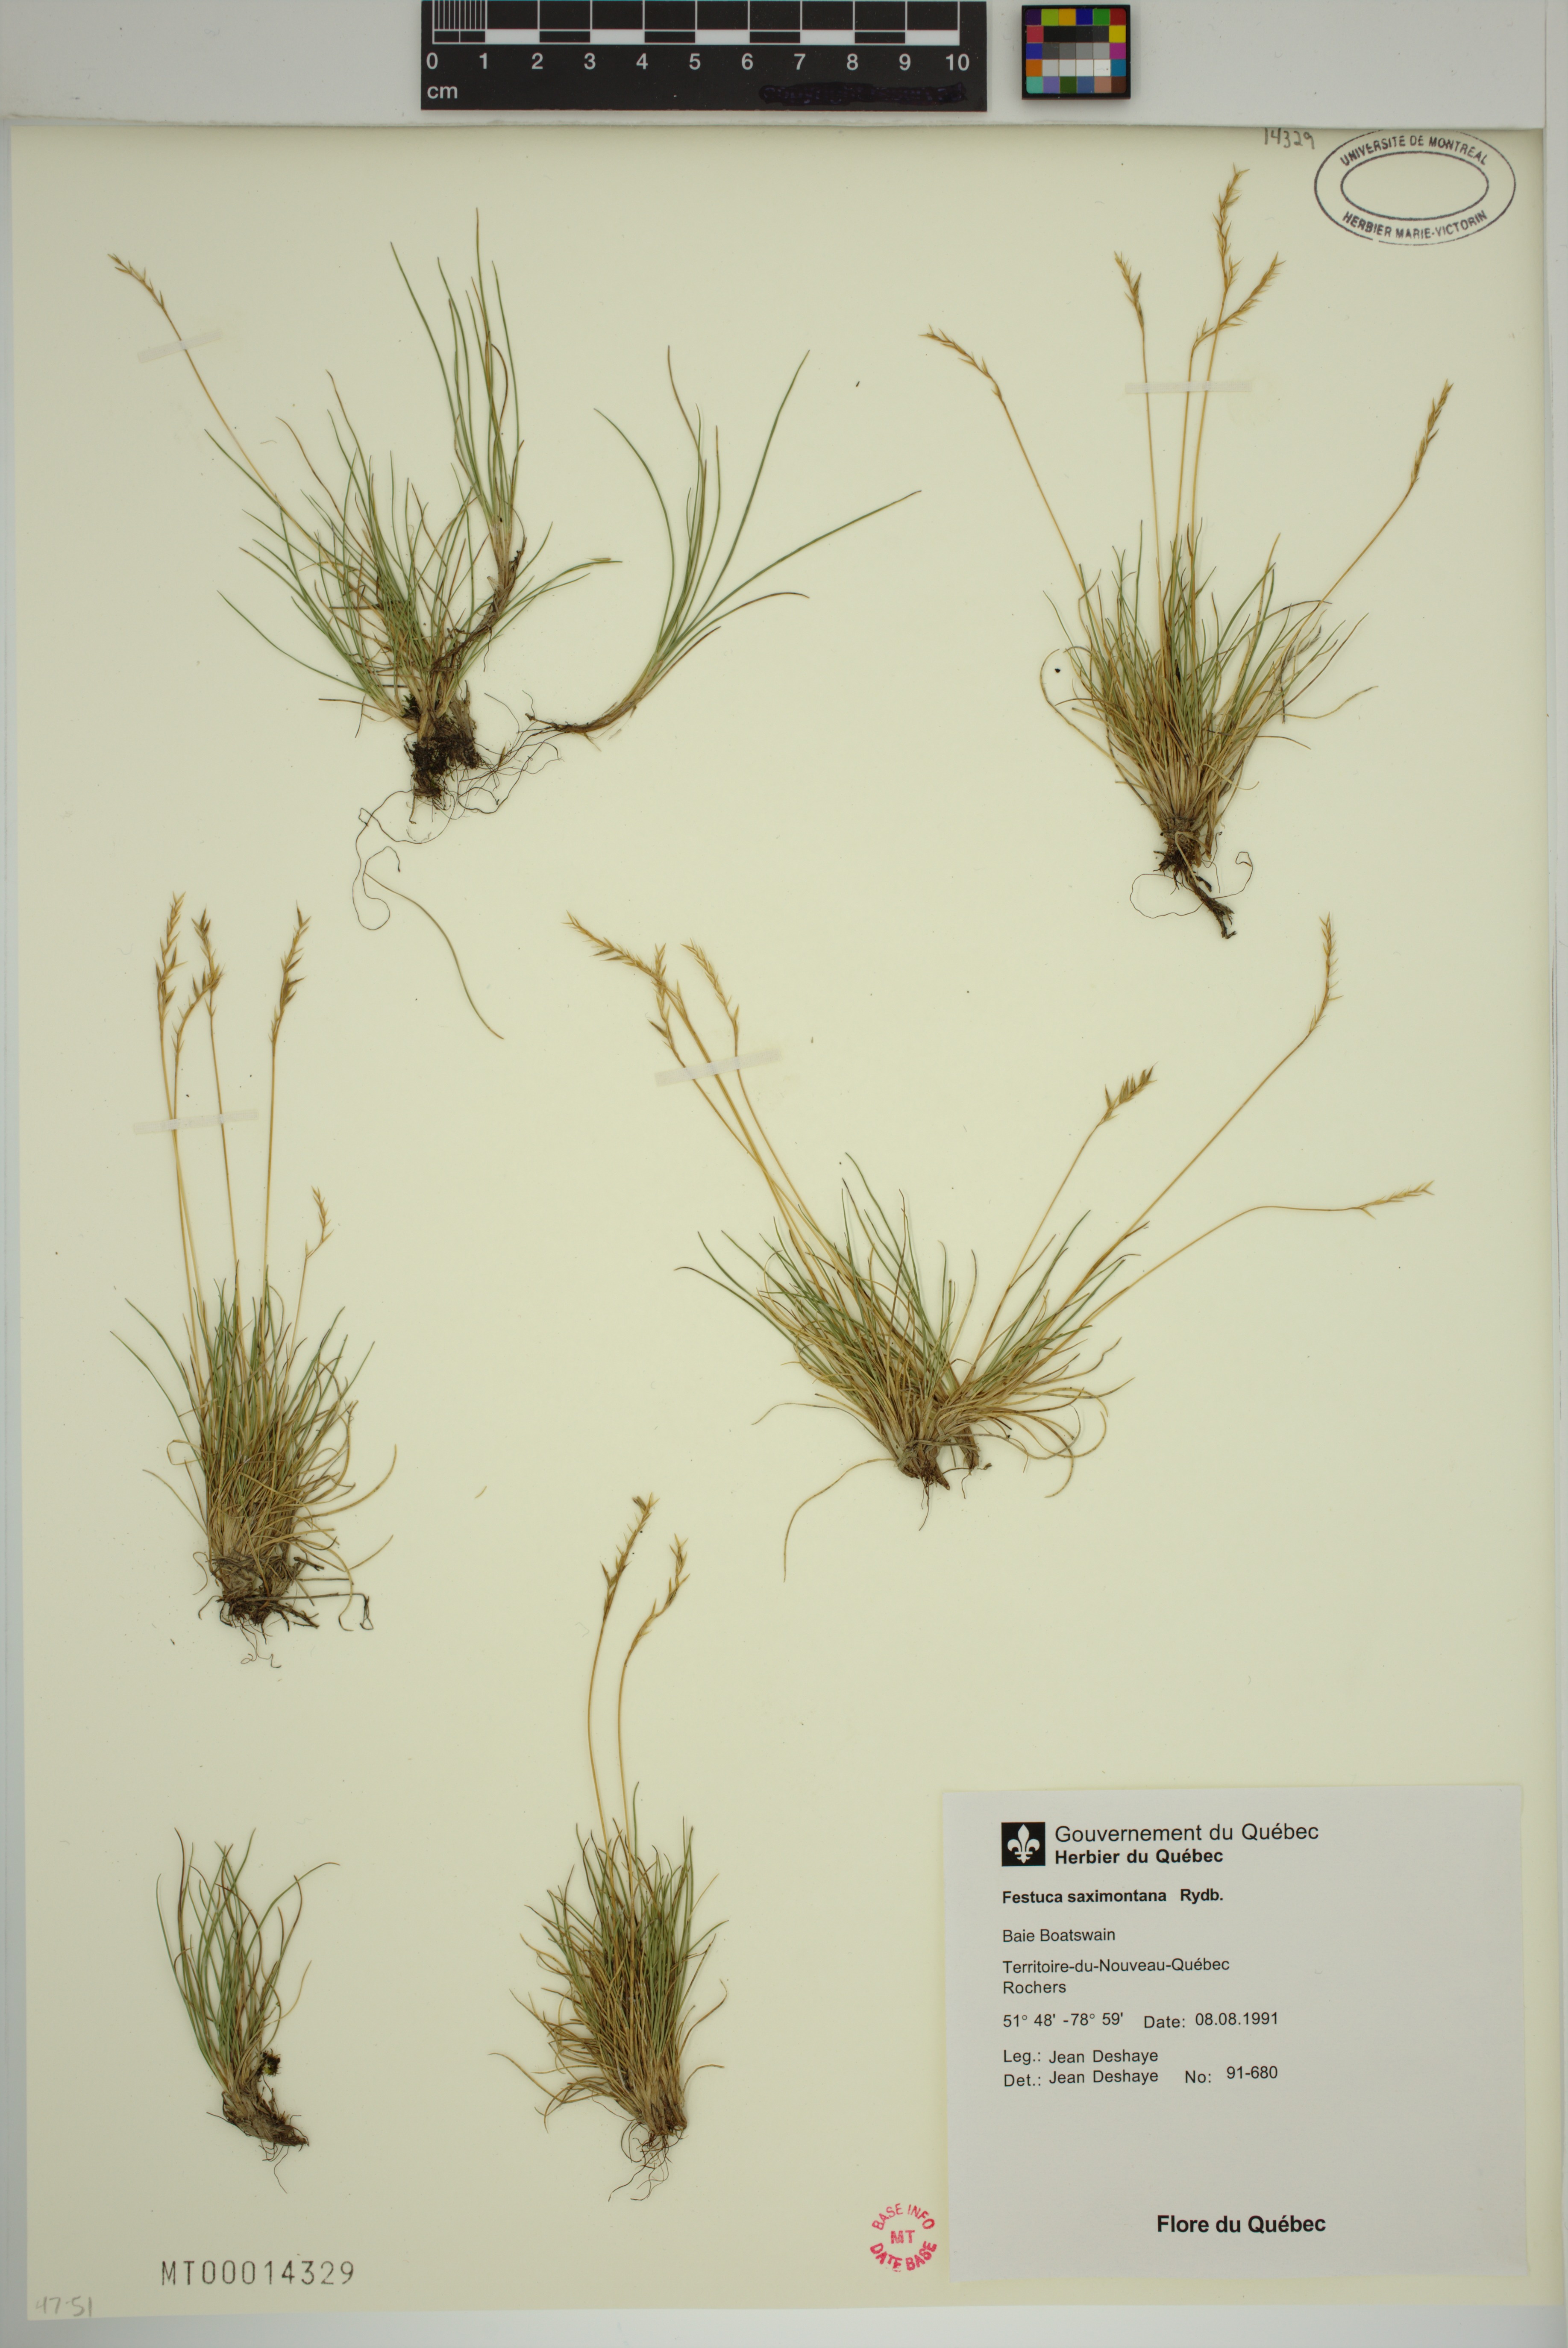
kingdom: Plantae
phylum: Tracheophyta
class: Liliopsida
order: Poales
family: Poaceae
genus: Festuca
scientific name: Festuca brachyphylla
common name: Alpine fescue
